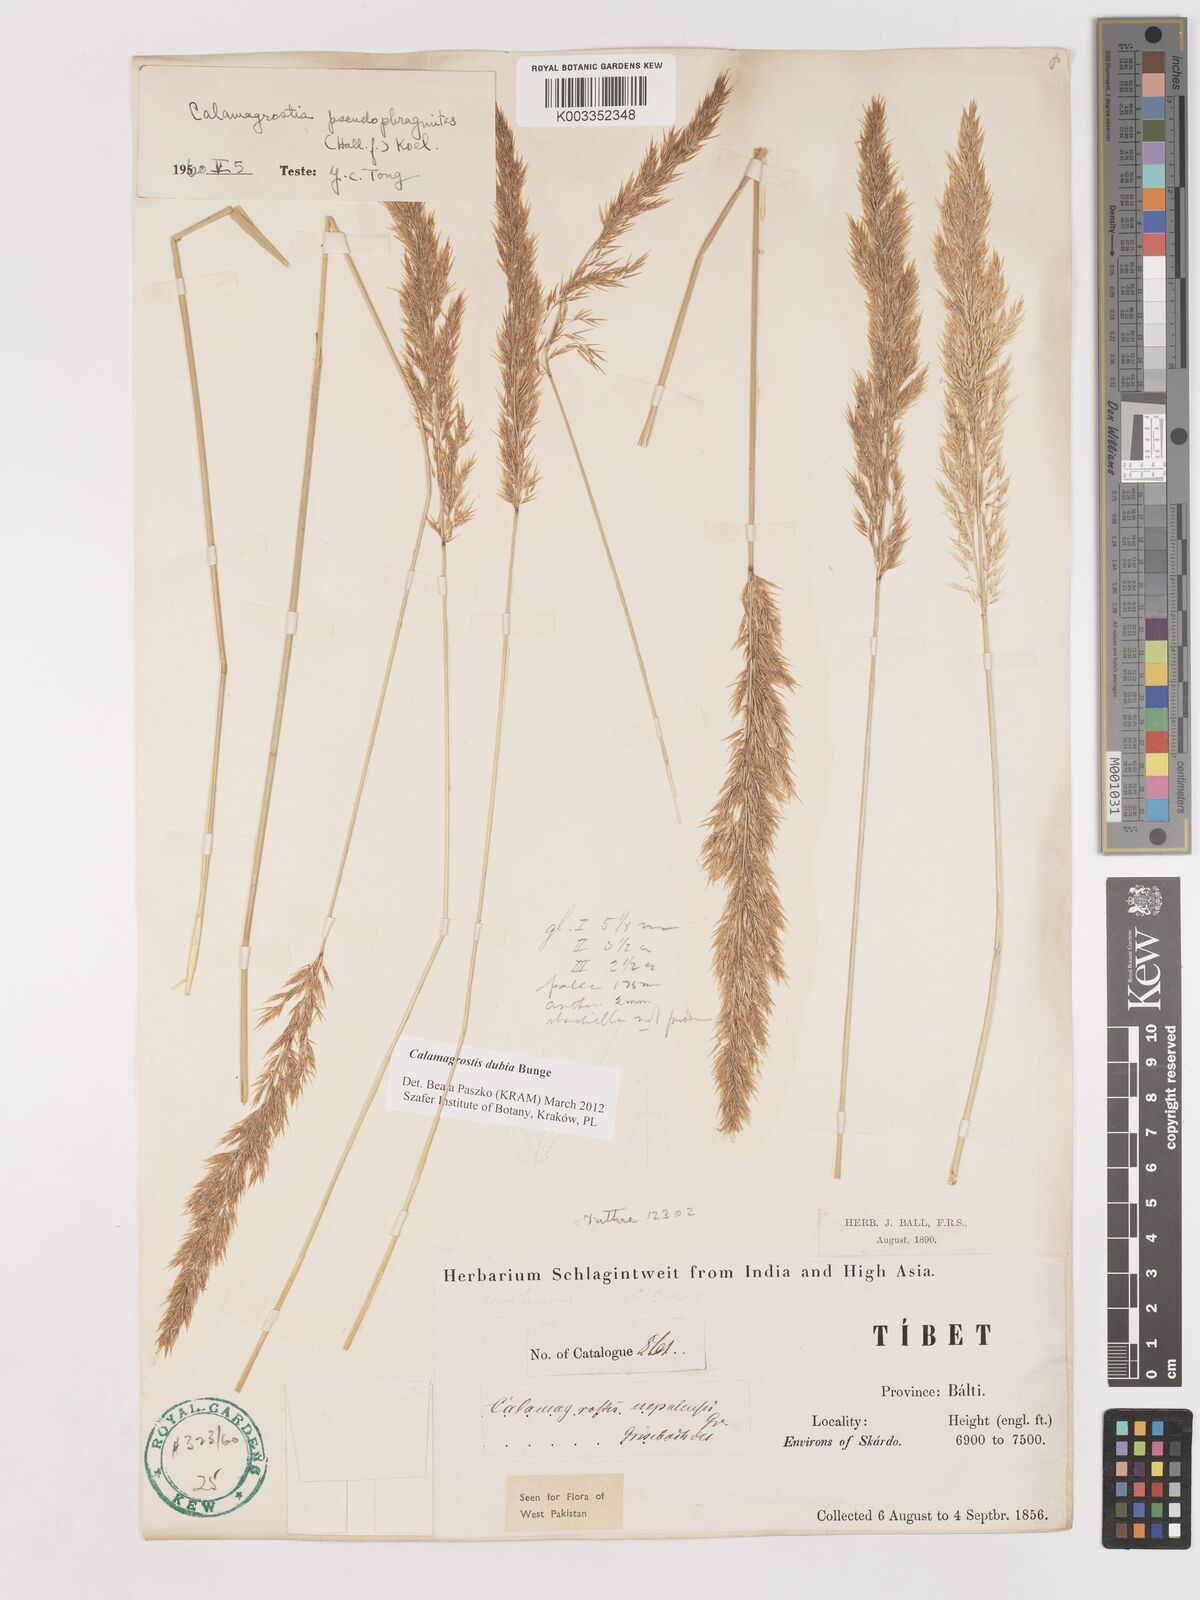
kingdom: Plantae
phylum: Tracheophyta
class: Liliopsida
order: Poales
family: Poaceae
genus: Calamagrostis
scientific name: Calamagrostis pseudophragmites
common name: Coastal small-reed
